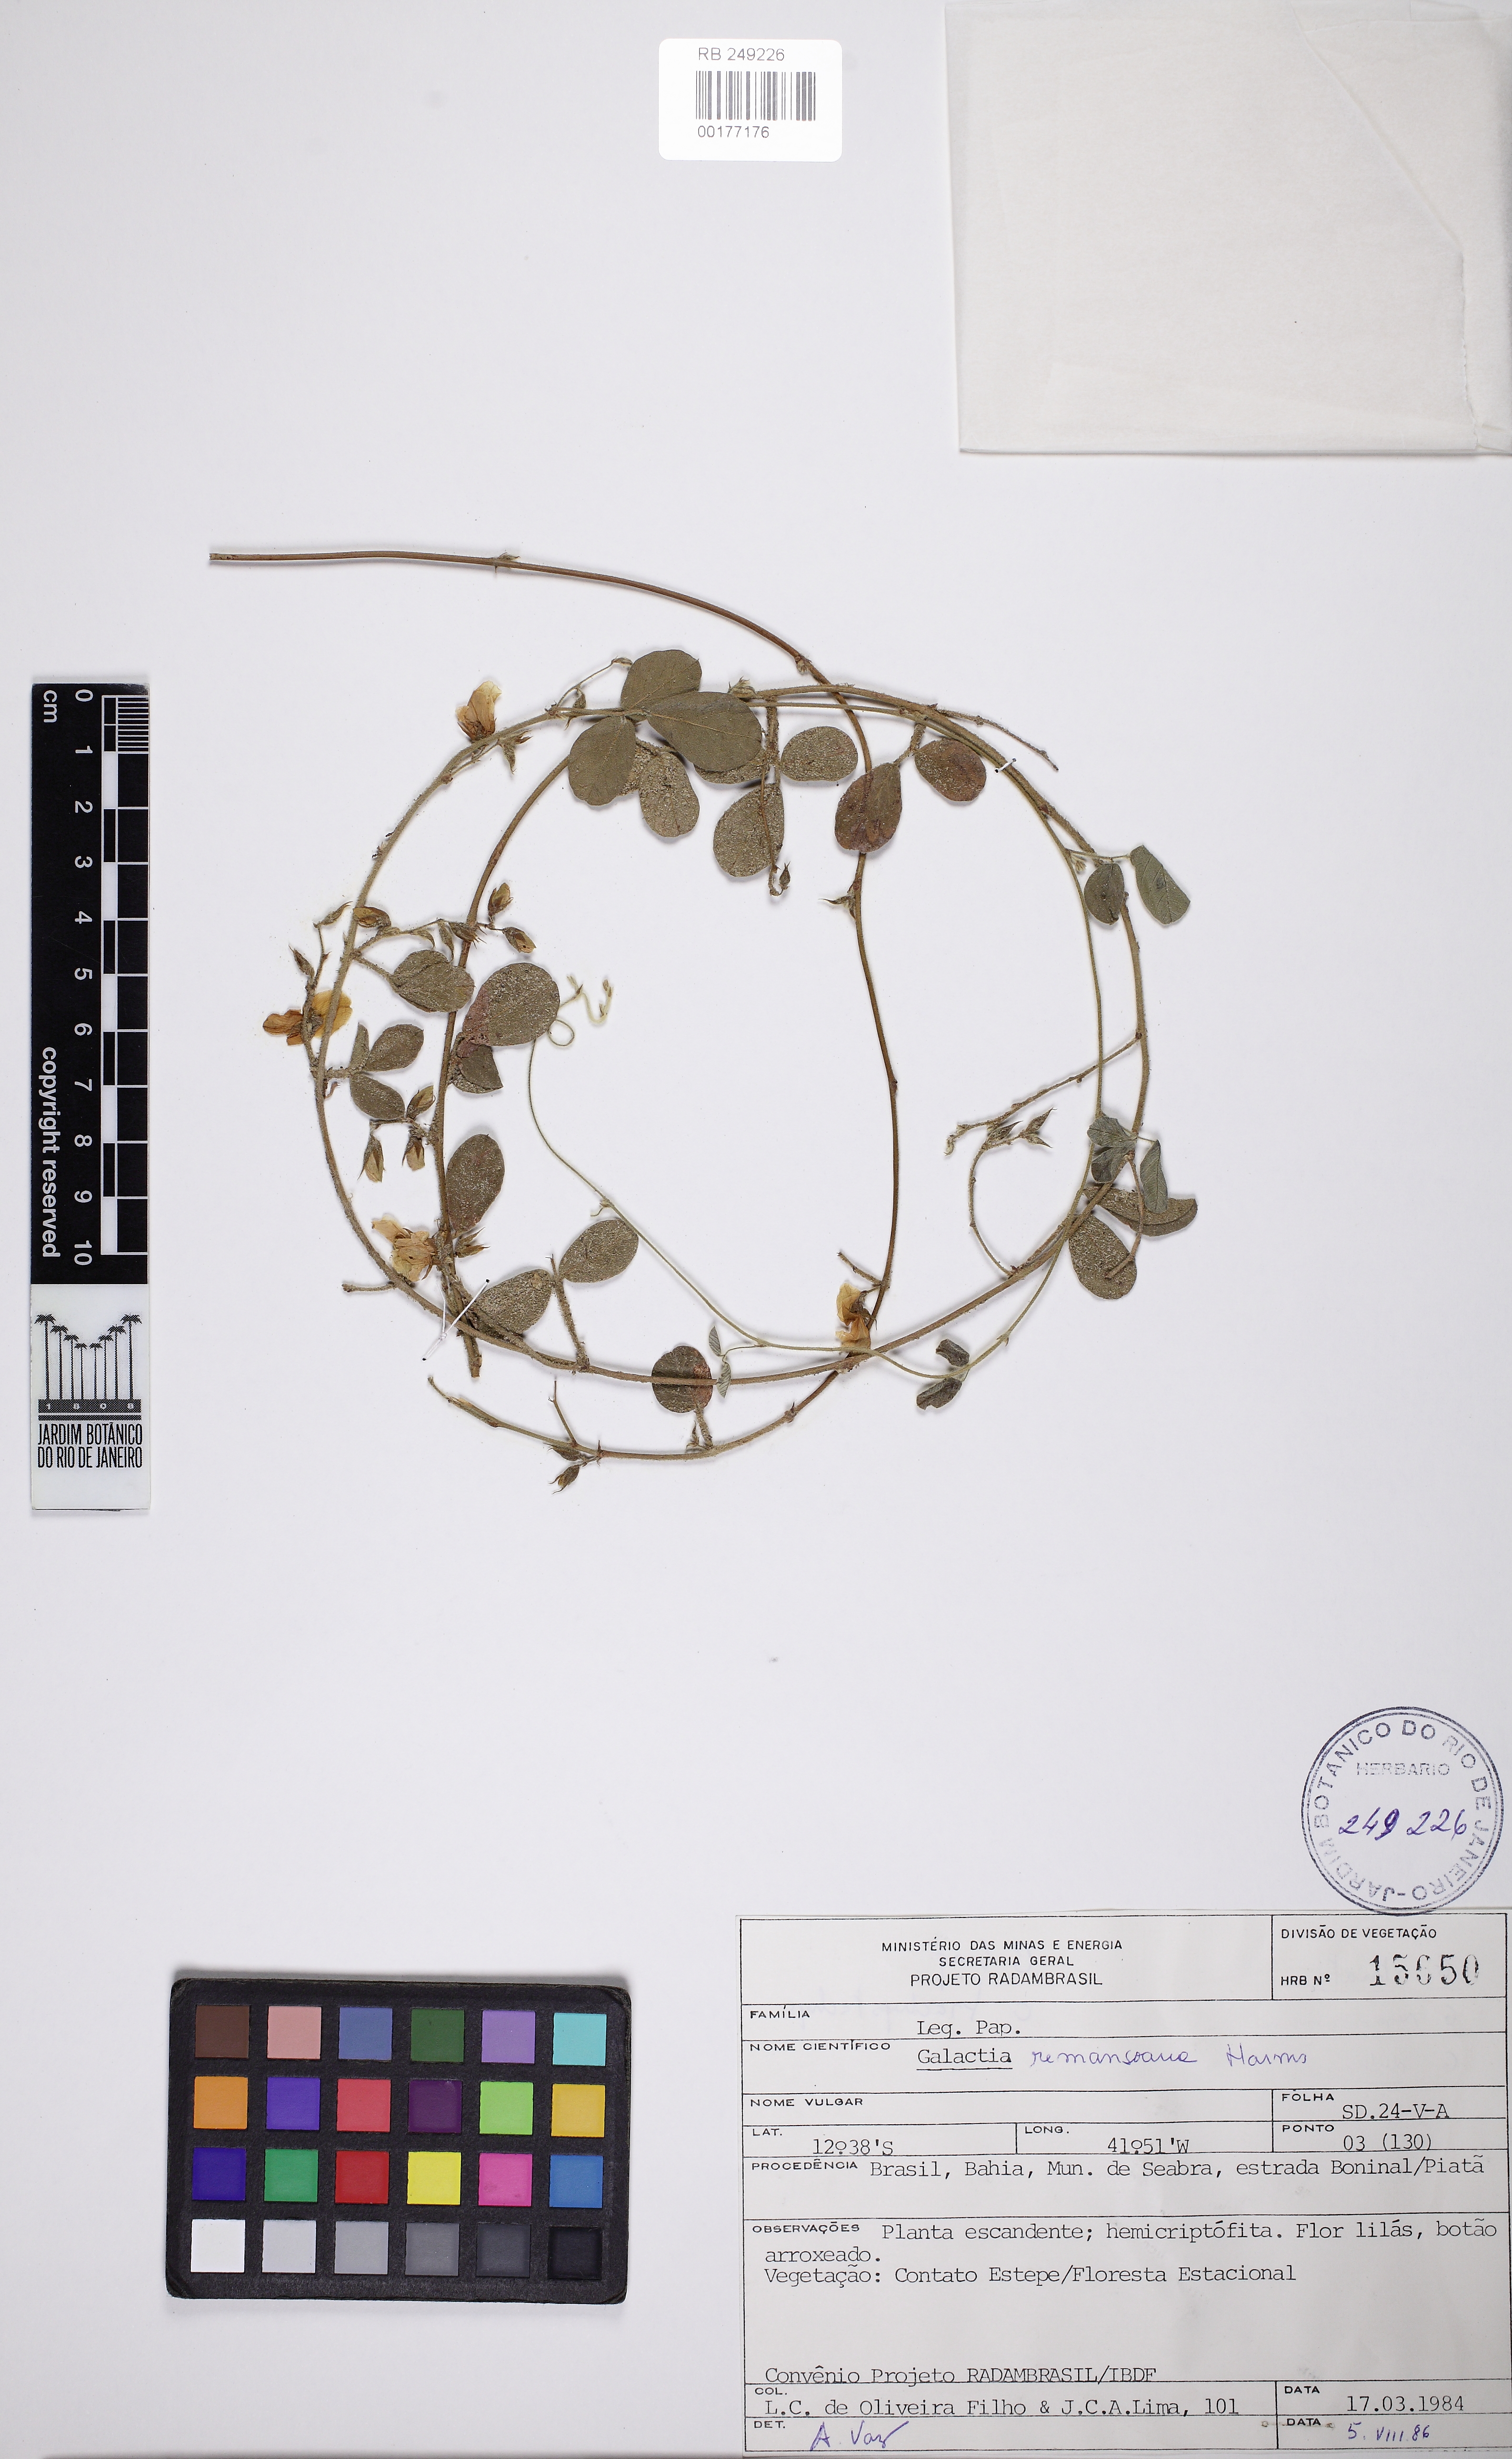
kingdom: Plantae
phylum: Tracheophyta
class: Magnoliopsida
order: Fabales
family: Fabaceae
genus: Galactia
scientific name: Galactia remansoana
